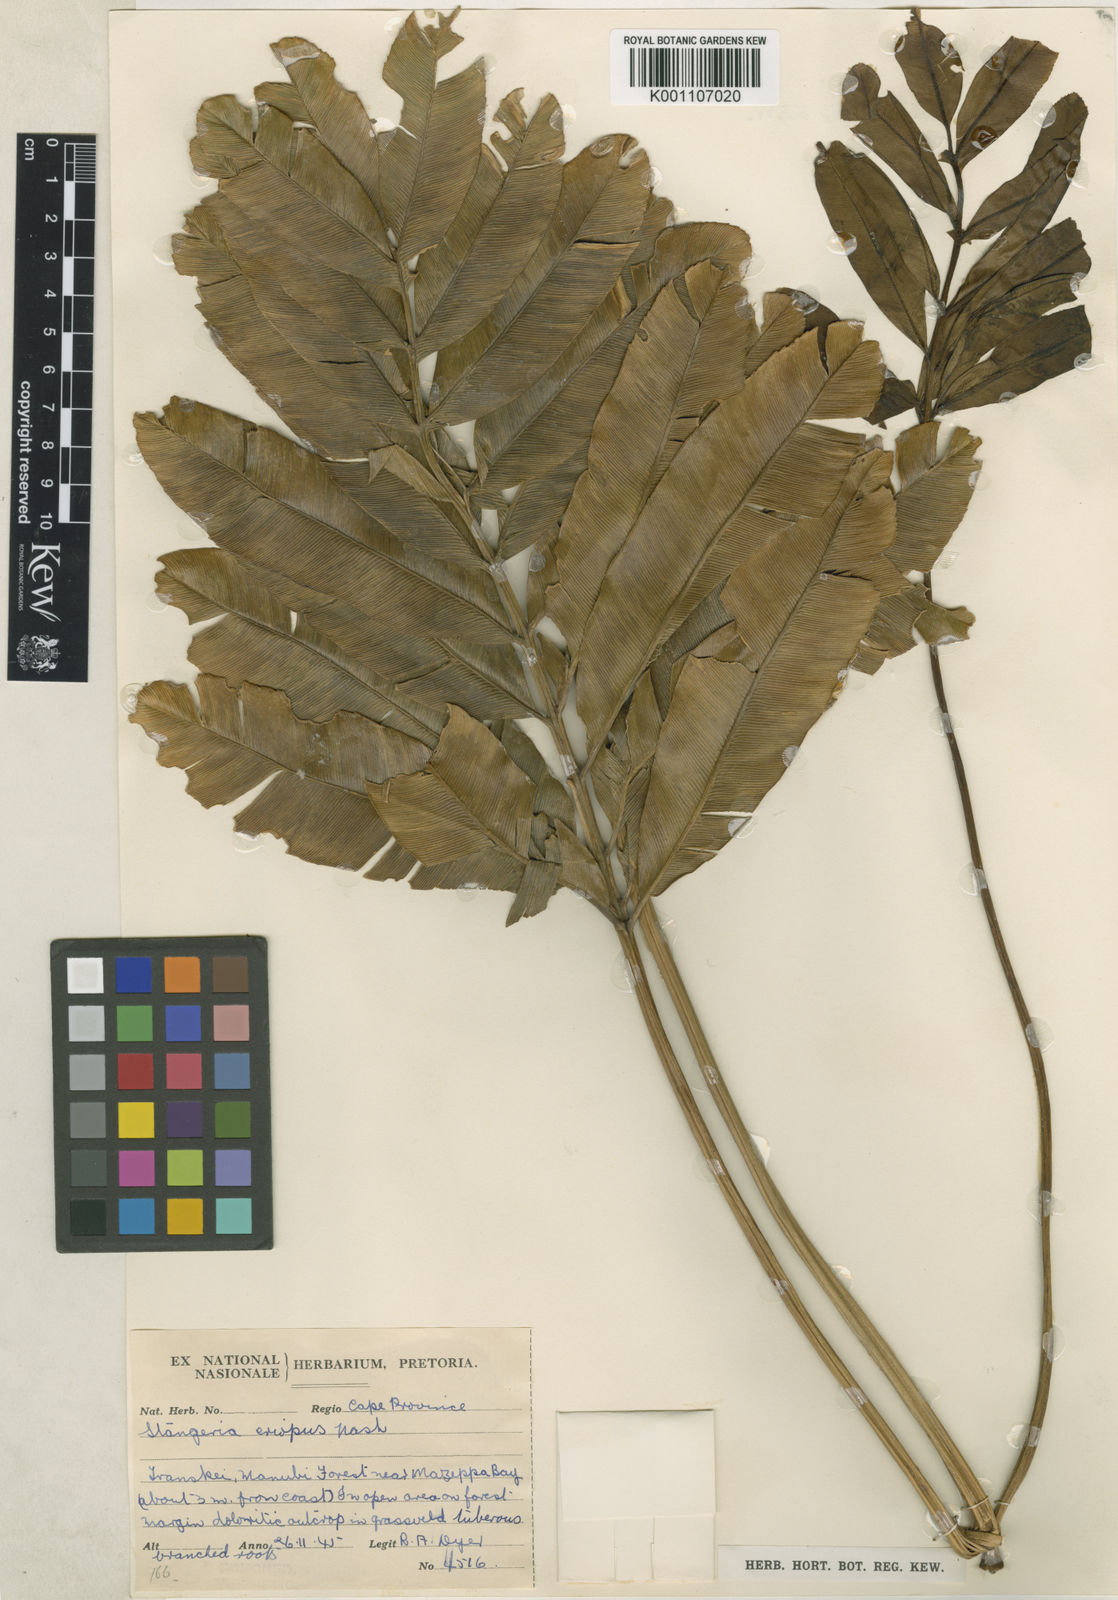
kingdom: Plantae
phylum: Tracheophyta
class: Cycadopsida
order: Cycadales
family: Zamiaceae
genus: Stangeria
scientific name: Stangeria
